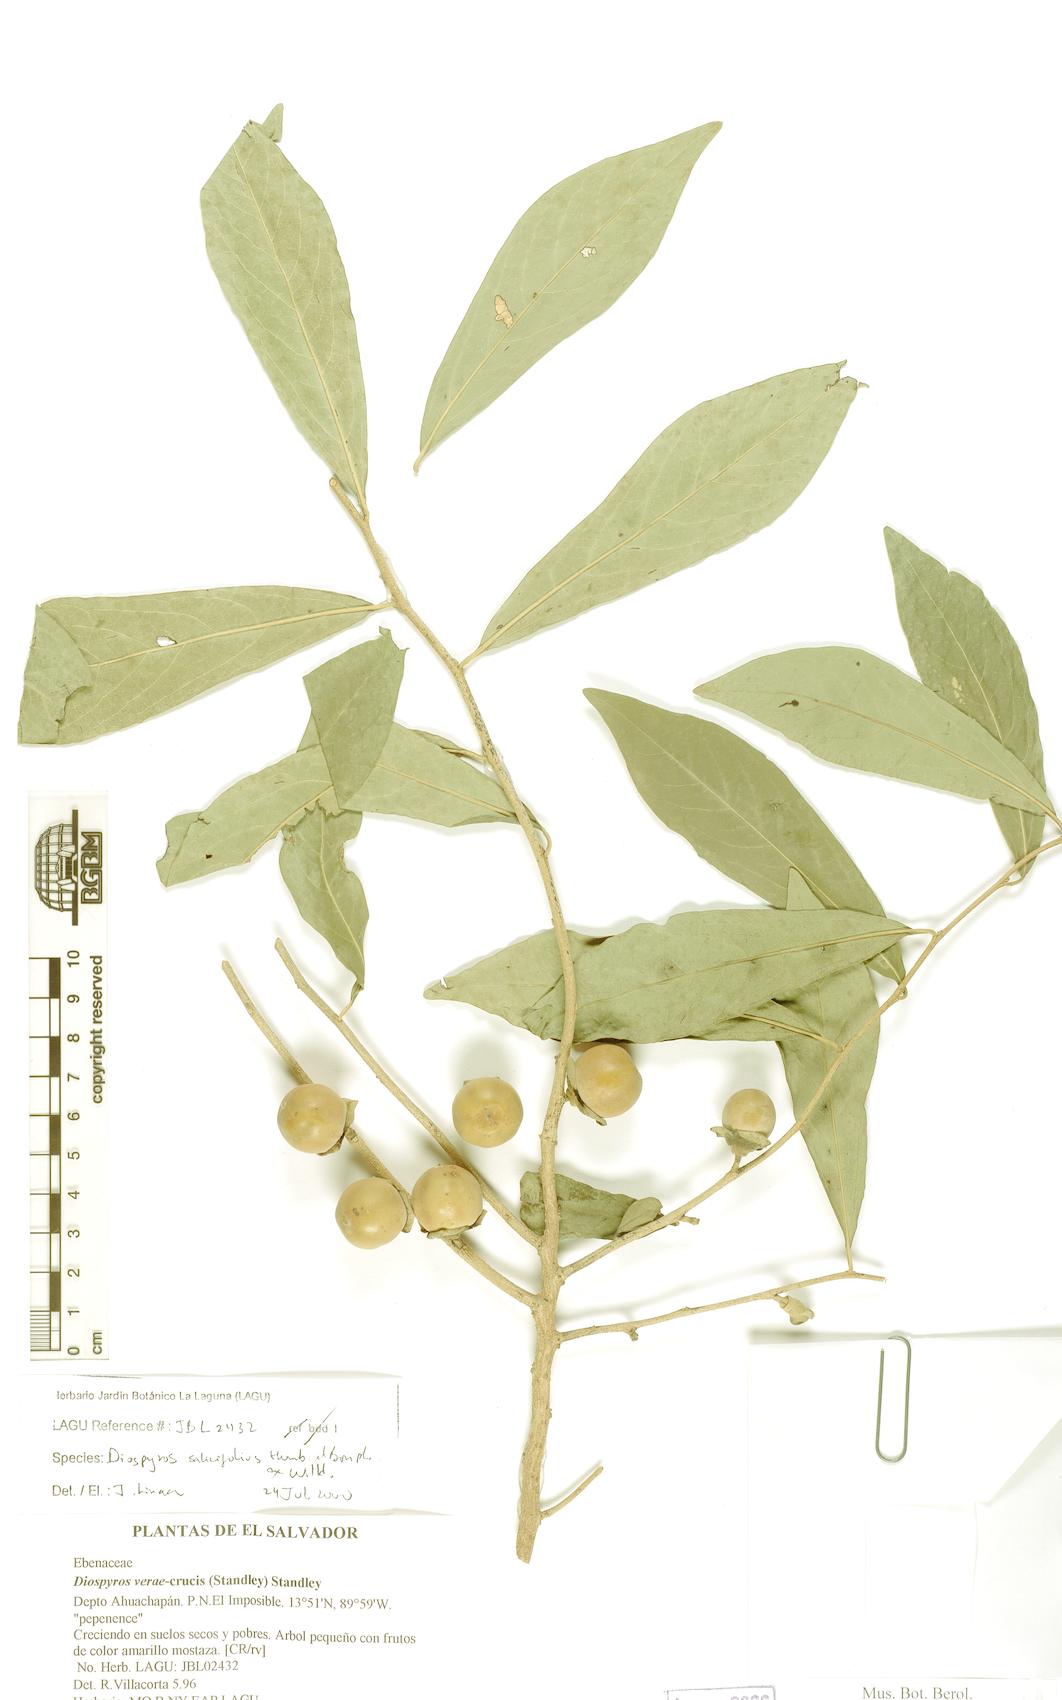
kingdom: Plantae
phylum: Tracheophyta
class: Magnoliopsida
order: Ericales
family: Ebenaceae
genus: Diospyros
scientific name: Diospyros salicifolia
